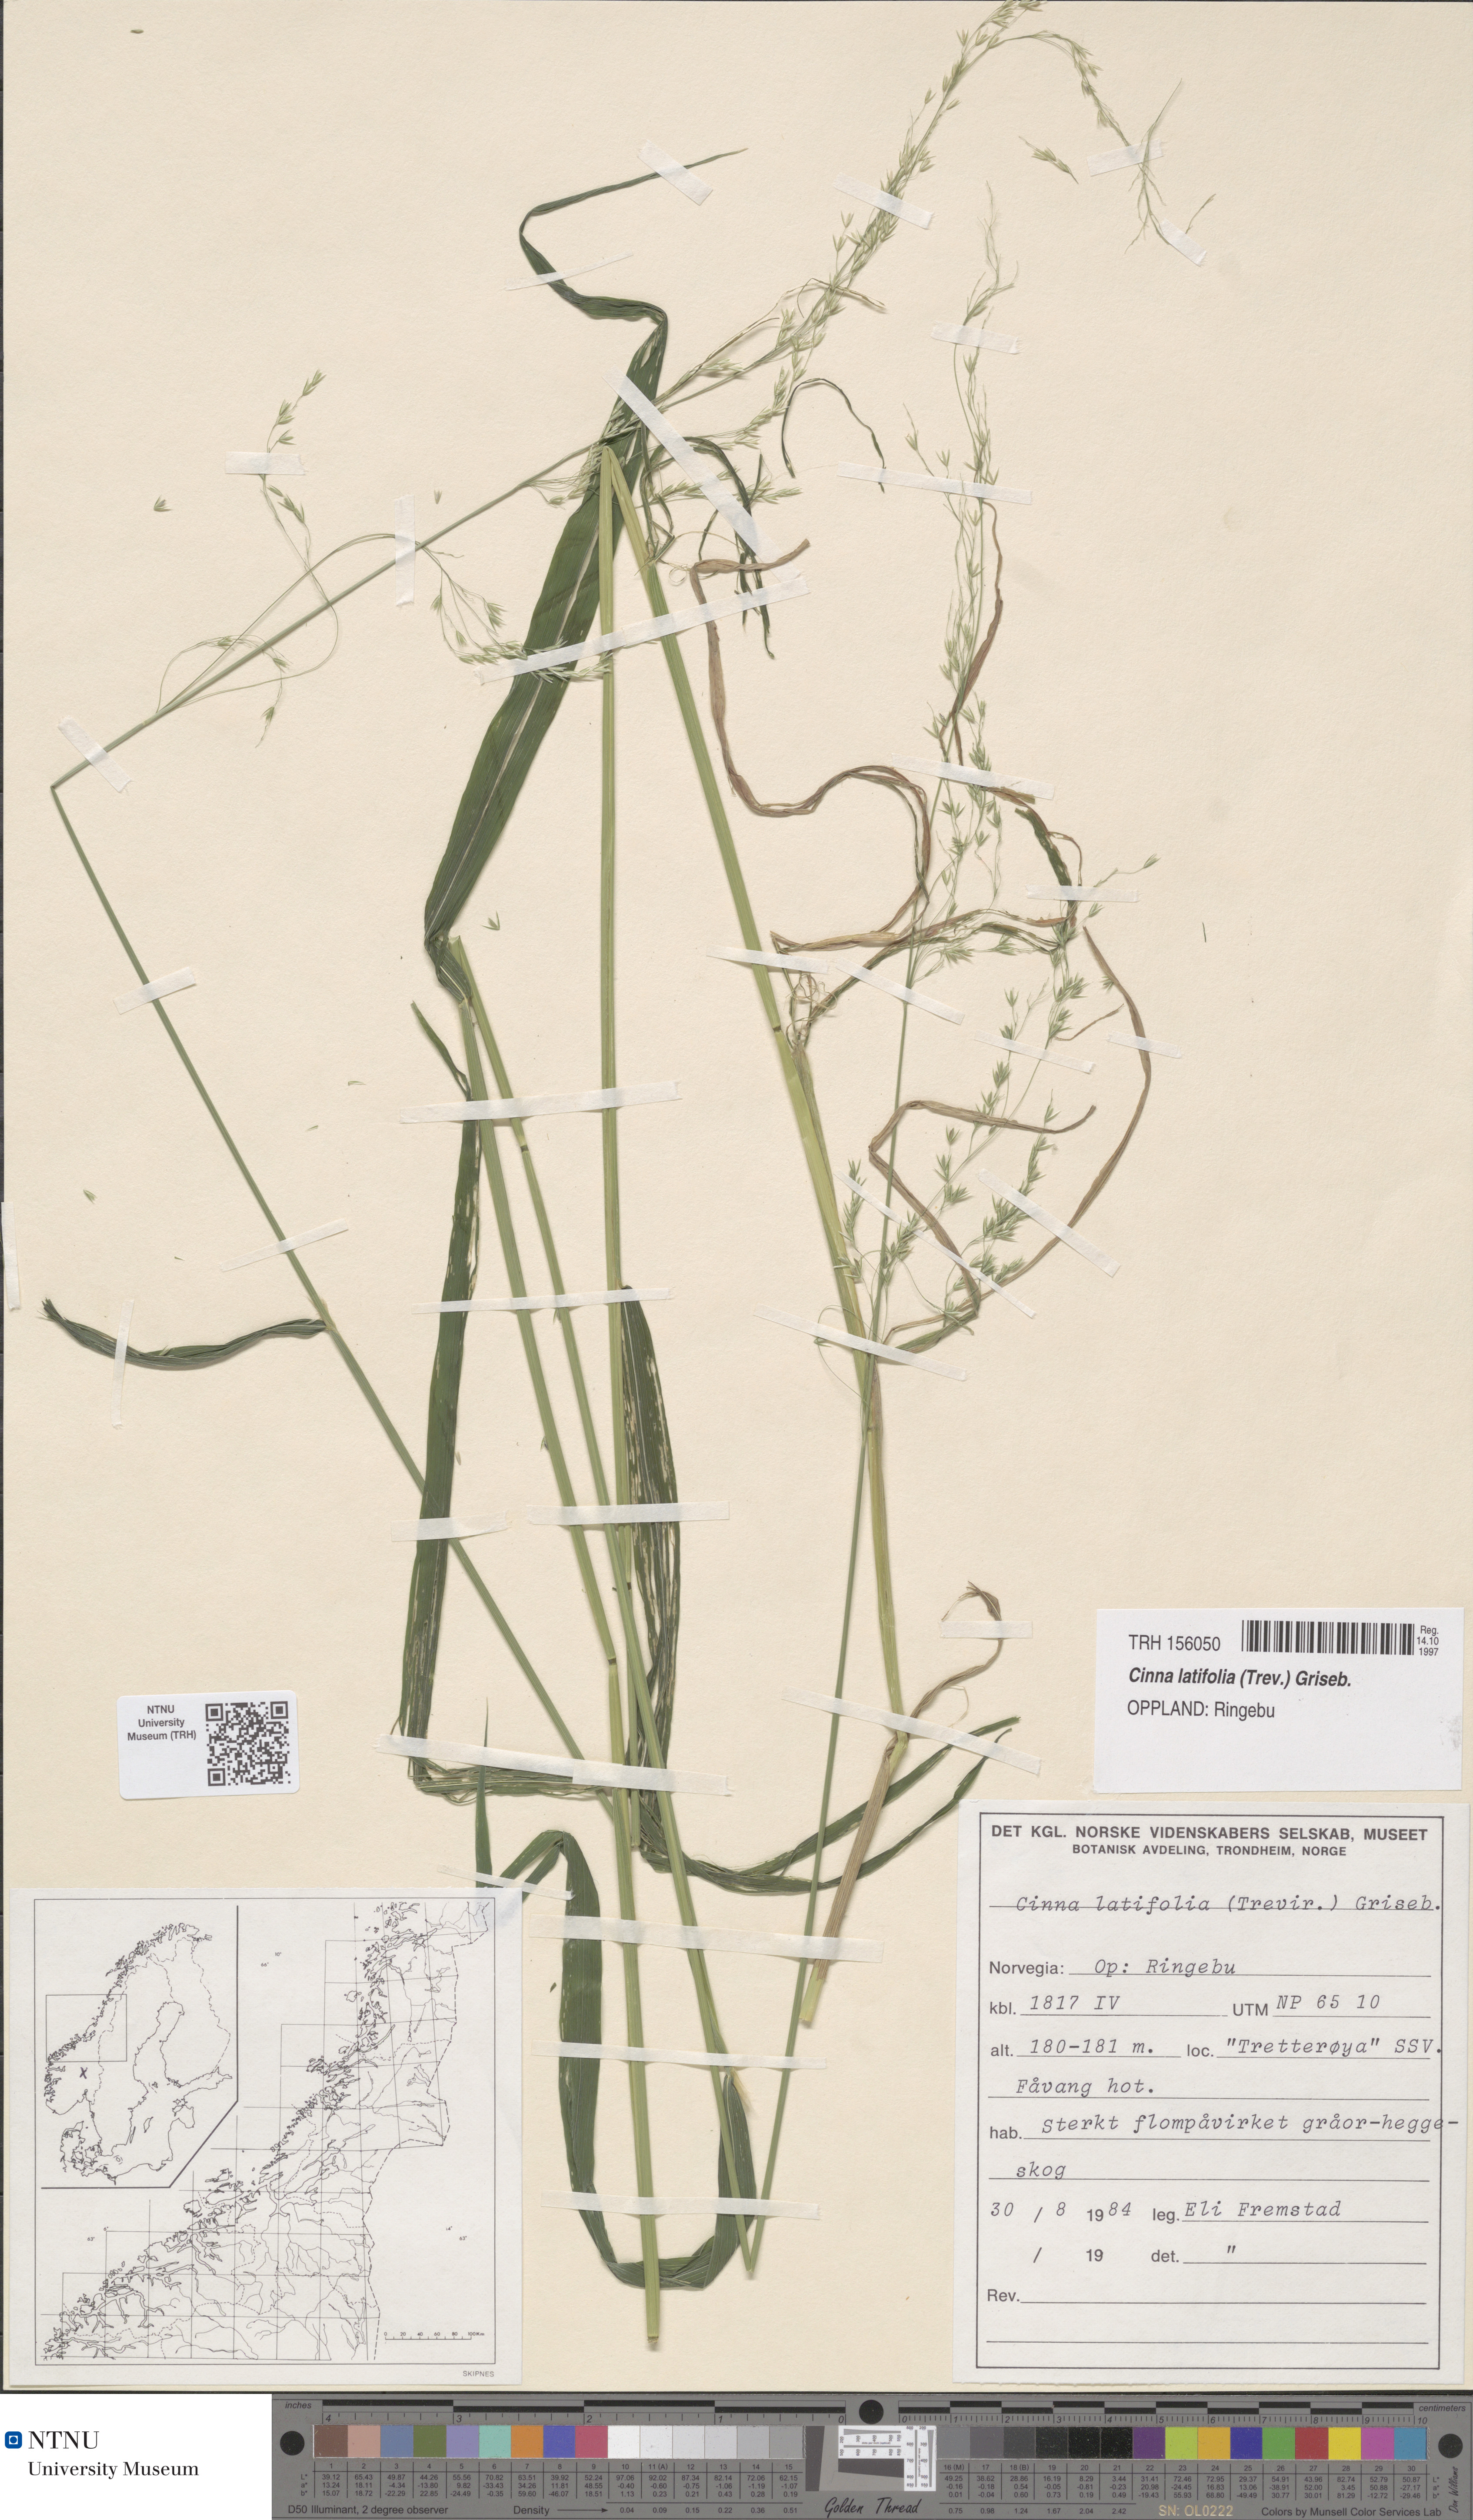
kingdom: Plantae
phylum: Tracheophyta
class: Liliopsida
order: Poales
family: Poaceae
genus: Cinna
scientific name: Cinna latifolia
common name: Drooping woodreed
